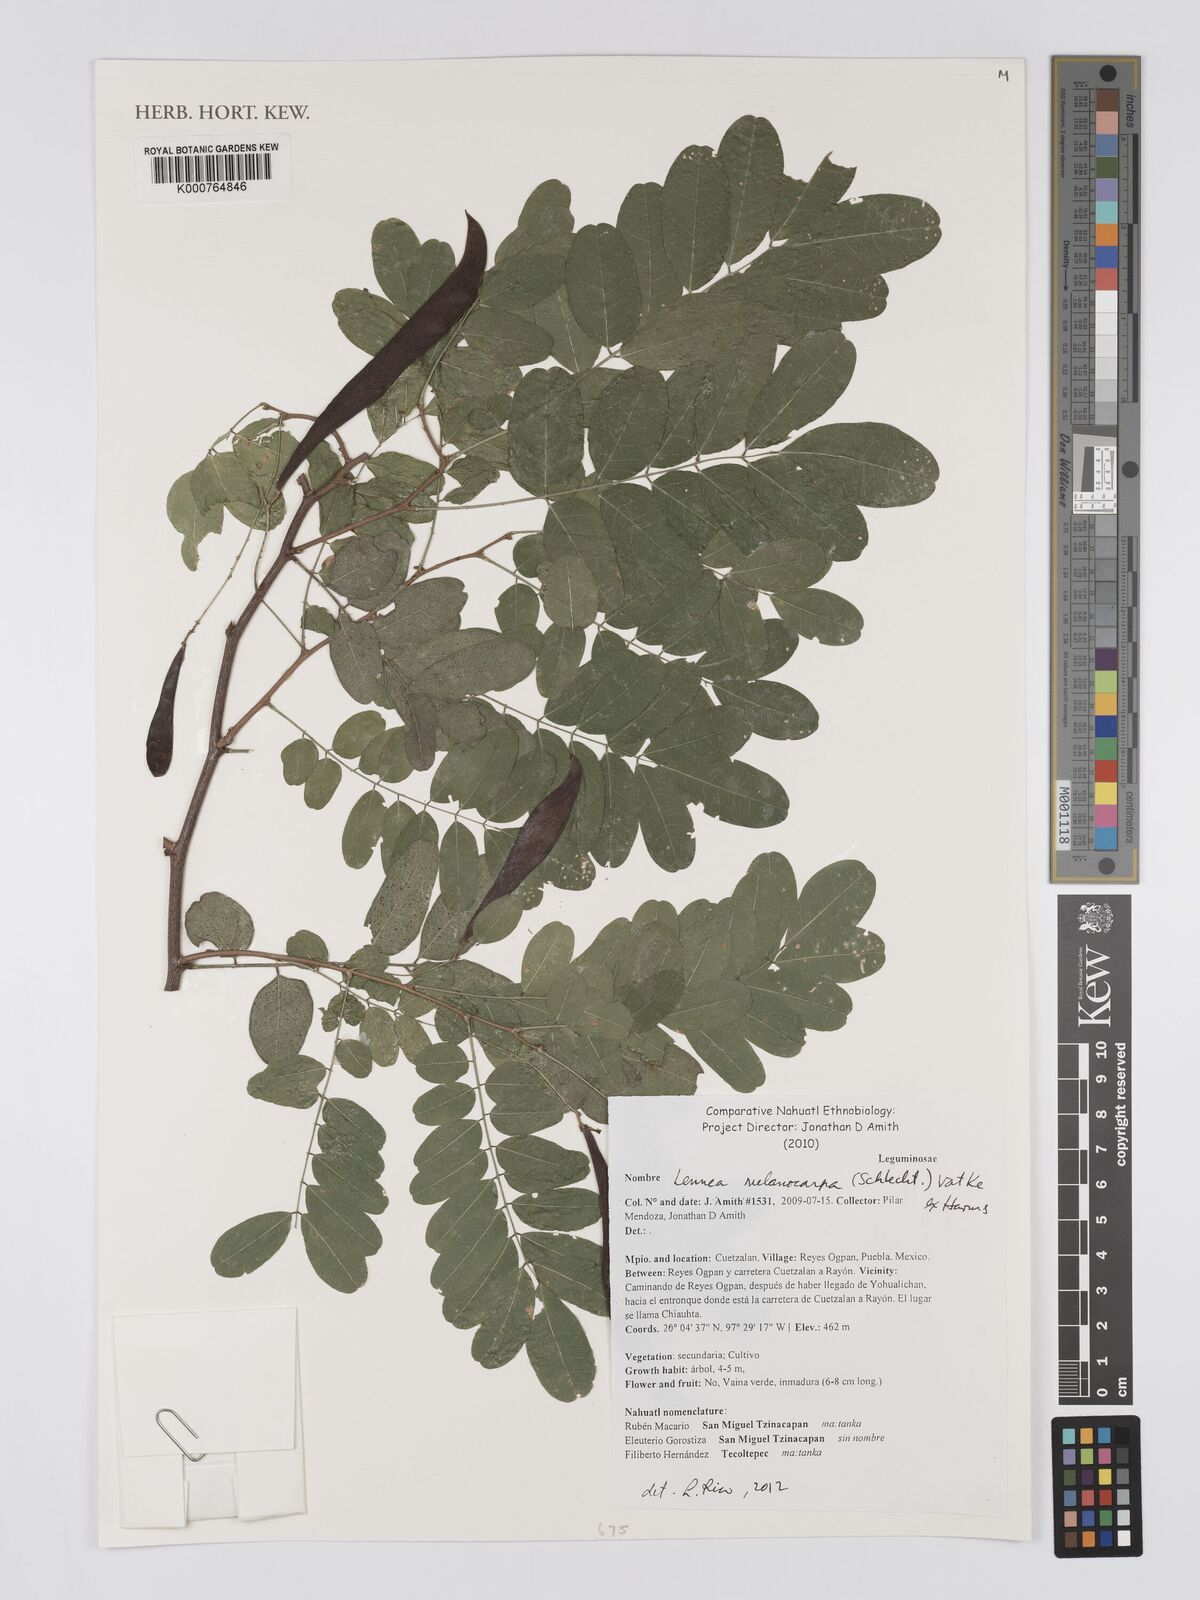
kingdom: Plantae
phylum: Tracheophyta
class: Magnoliopsida
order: Fabales
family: Fabaceae
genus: Lennea
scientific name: Lennea melanocarpa
